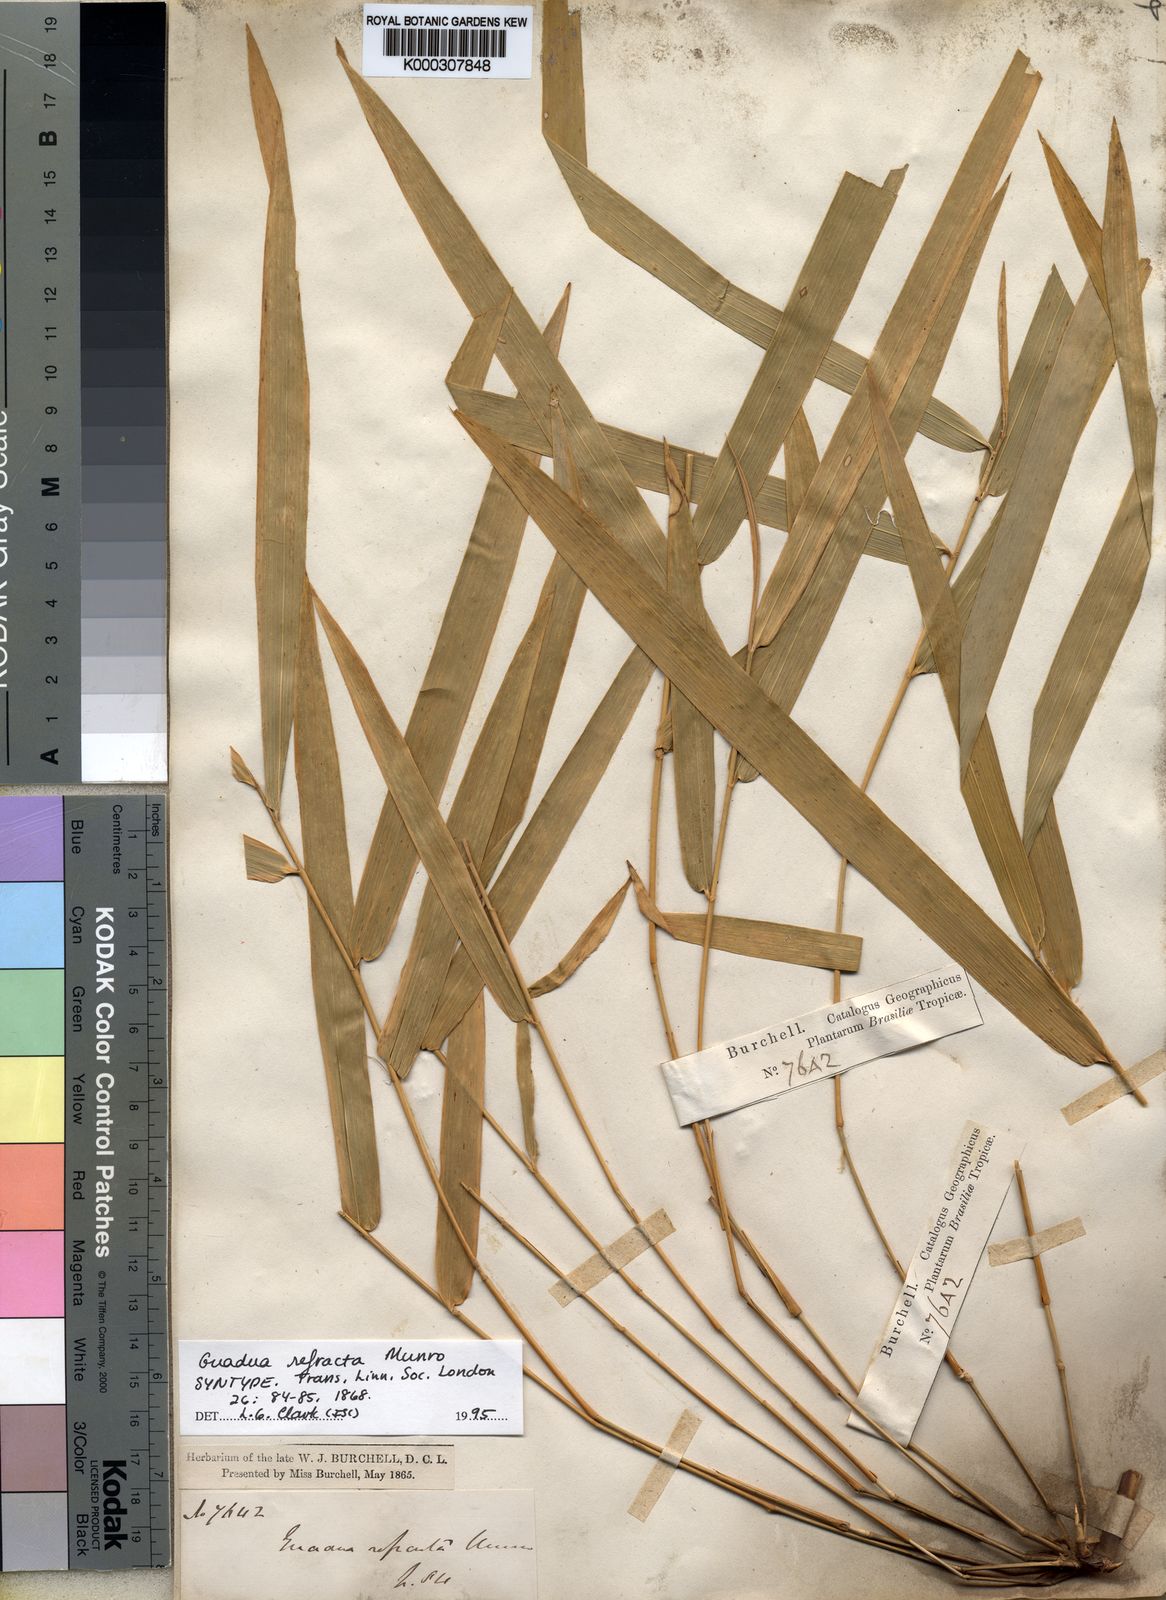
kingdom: Plantae
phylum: Tracheophyta
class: Liliopsida
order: Poales
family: Poaceae
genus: Guadua
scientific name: Guadua refracta
